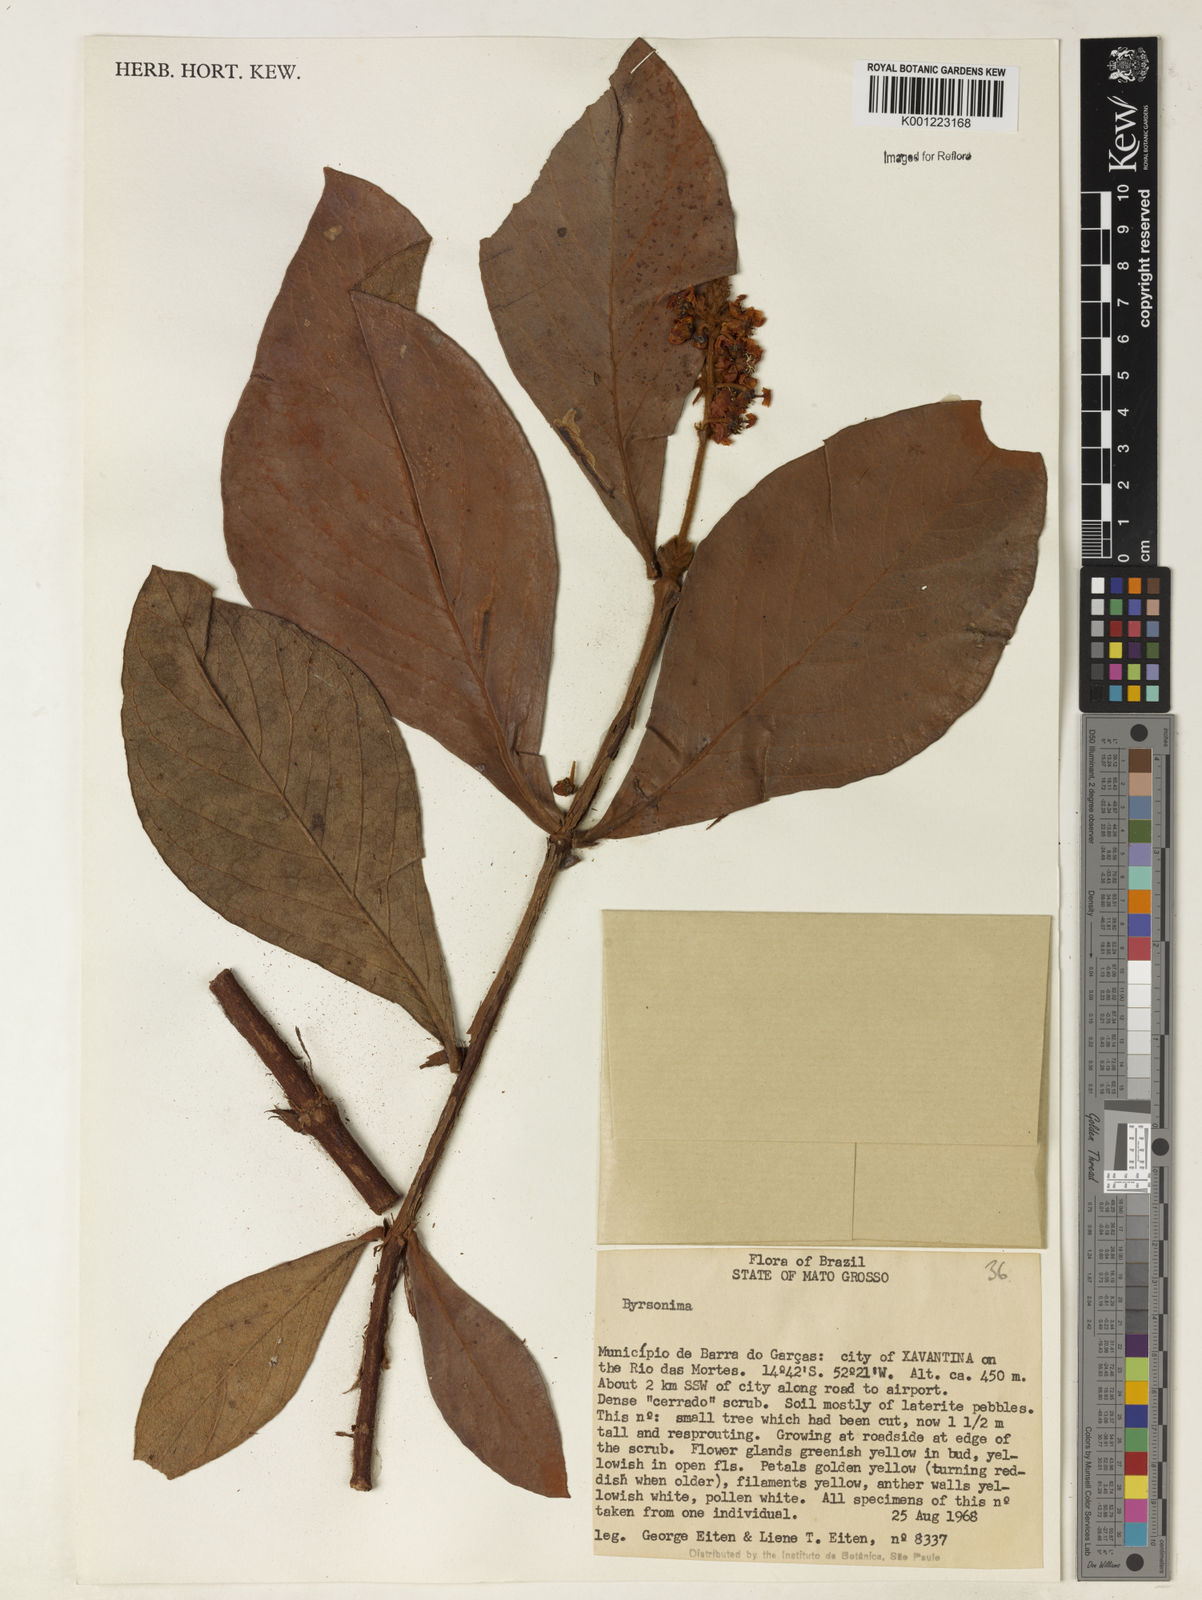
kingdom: Plantae
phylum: Tracheophyta
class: Magnoliopsida
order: Malpighiales
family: Malpighiaceae
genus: Byrsonima
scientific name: Byrsonima
